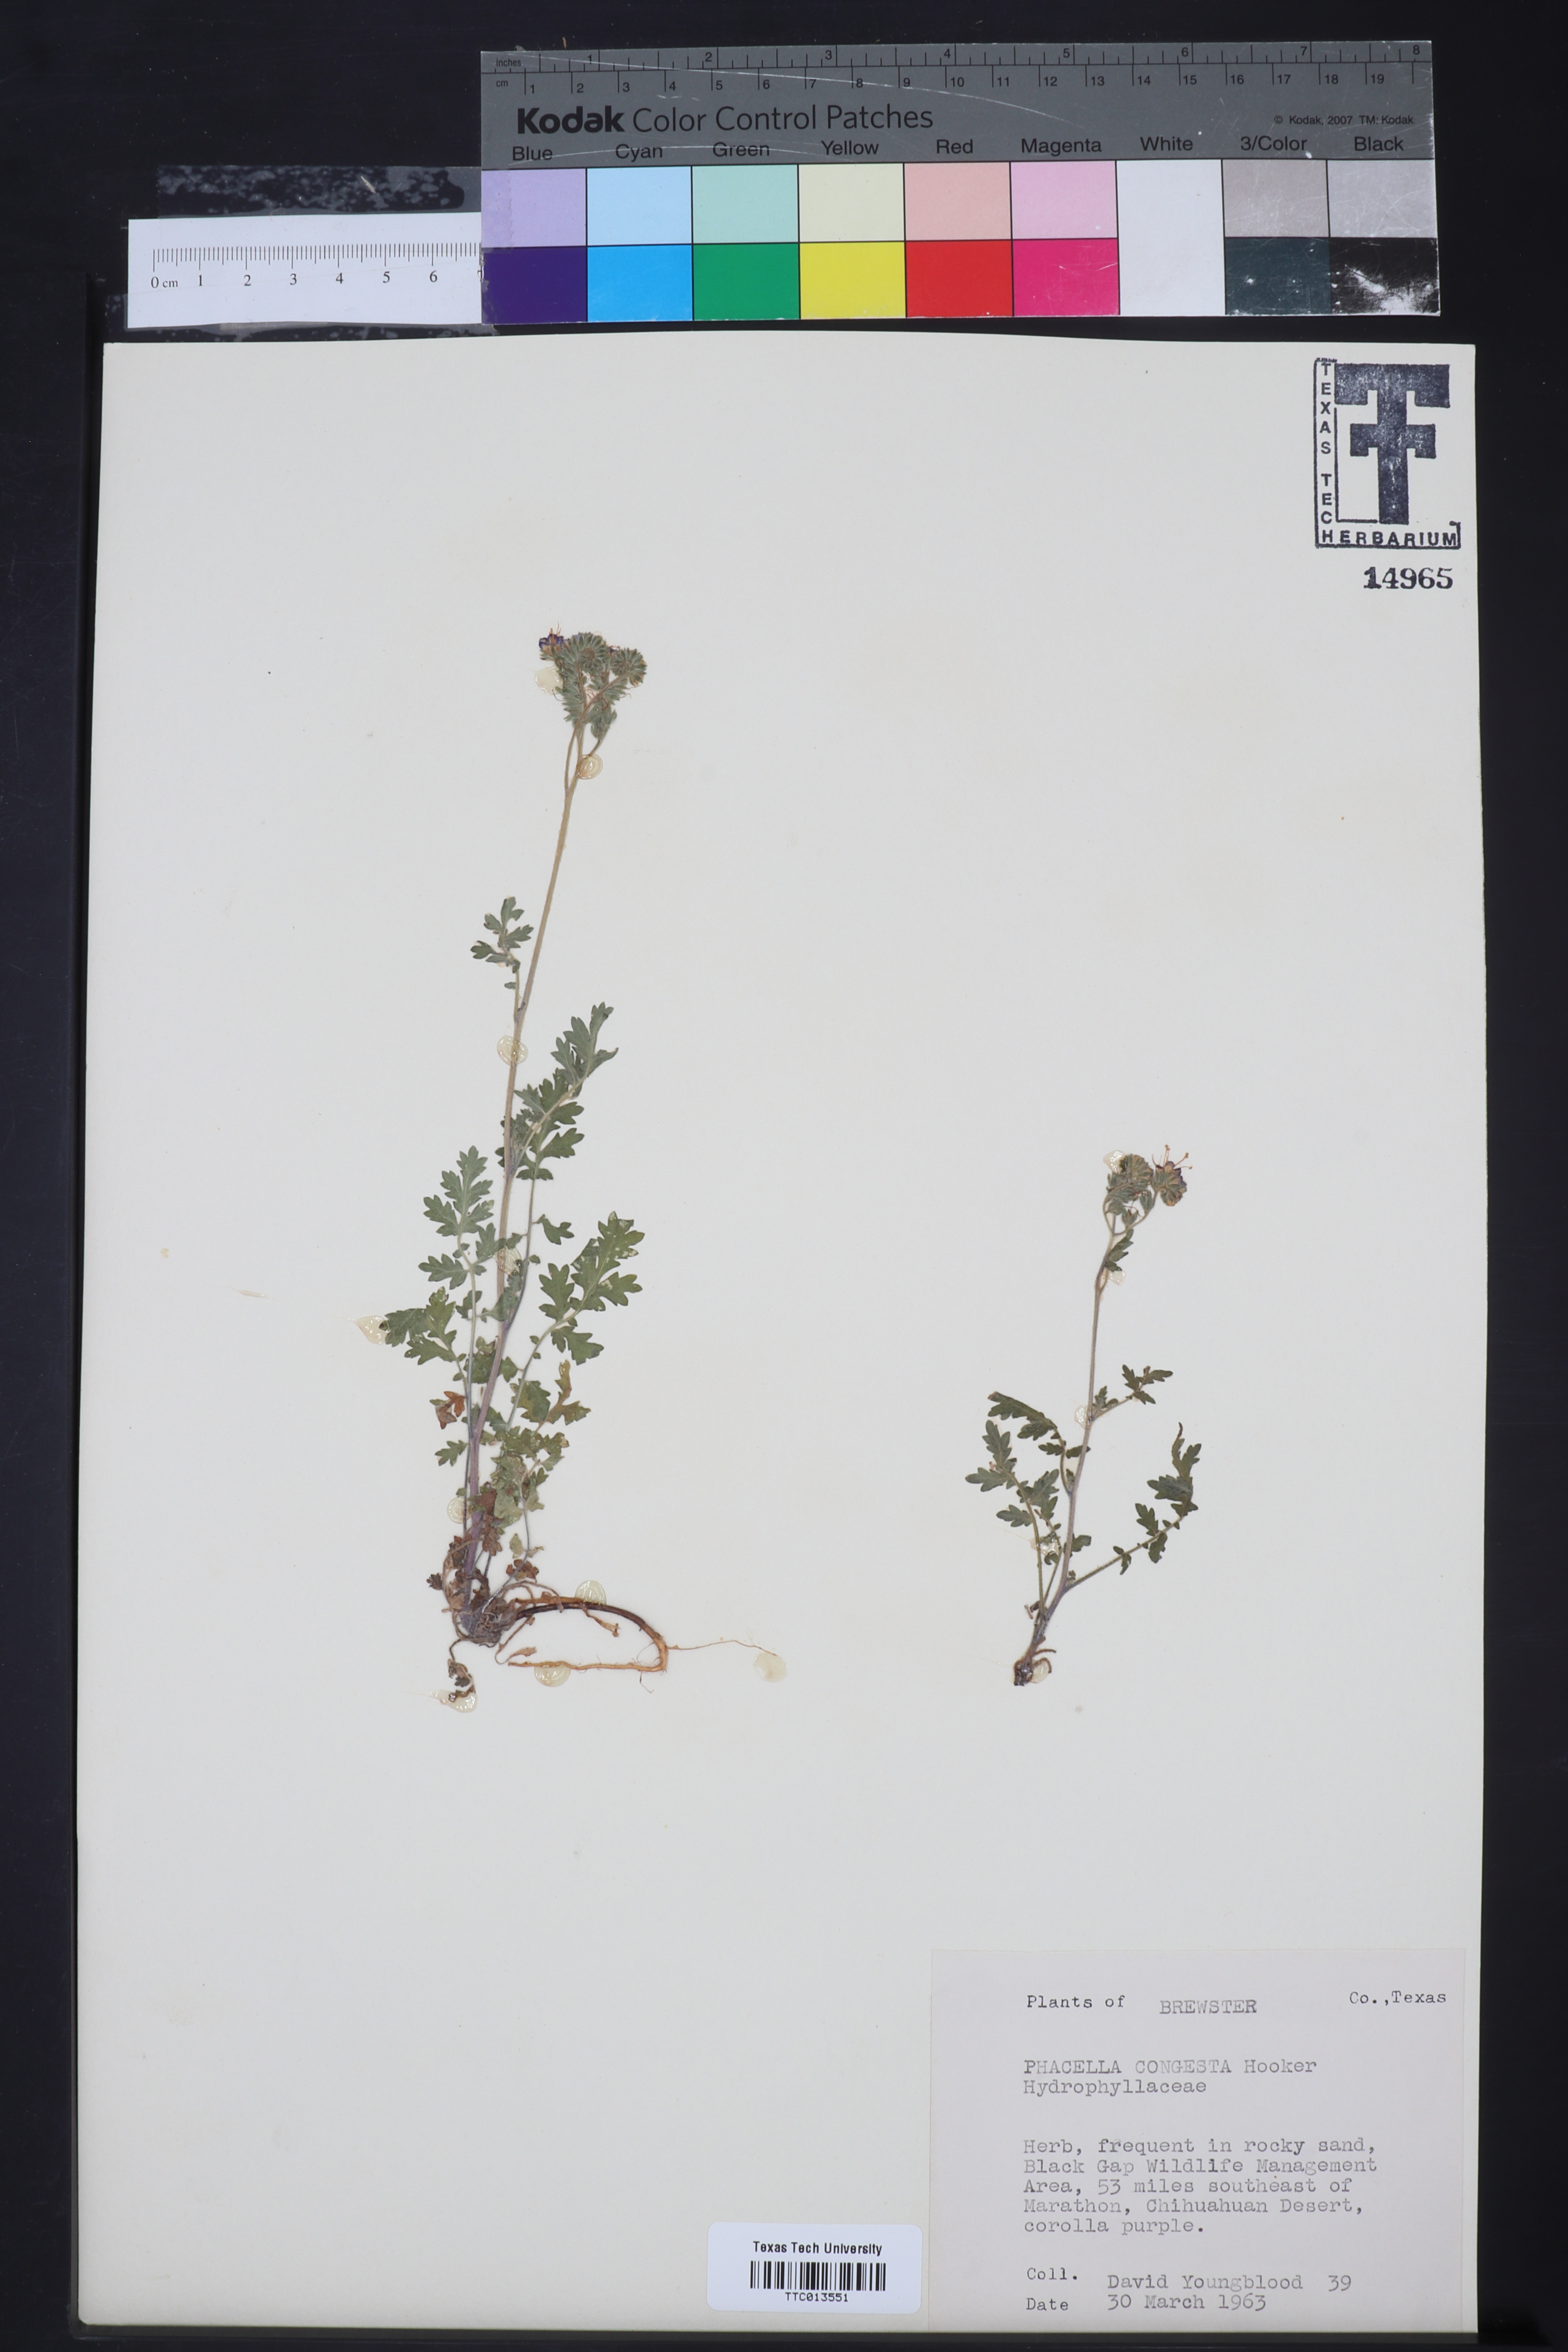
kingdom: Plantae
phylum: Tracheophyta
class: Magnoliopsida
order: Boraginales
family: Hydrophyllaceae
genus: Phacelia
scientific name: Phacelia congesta
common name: Blue curls
